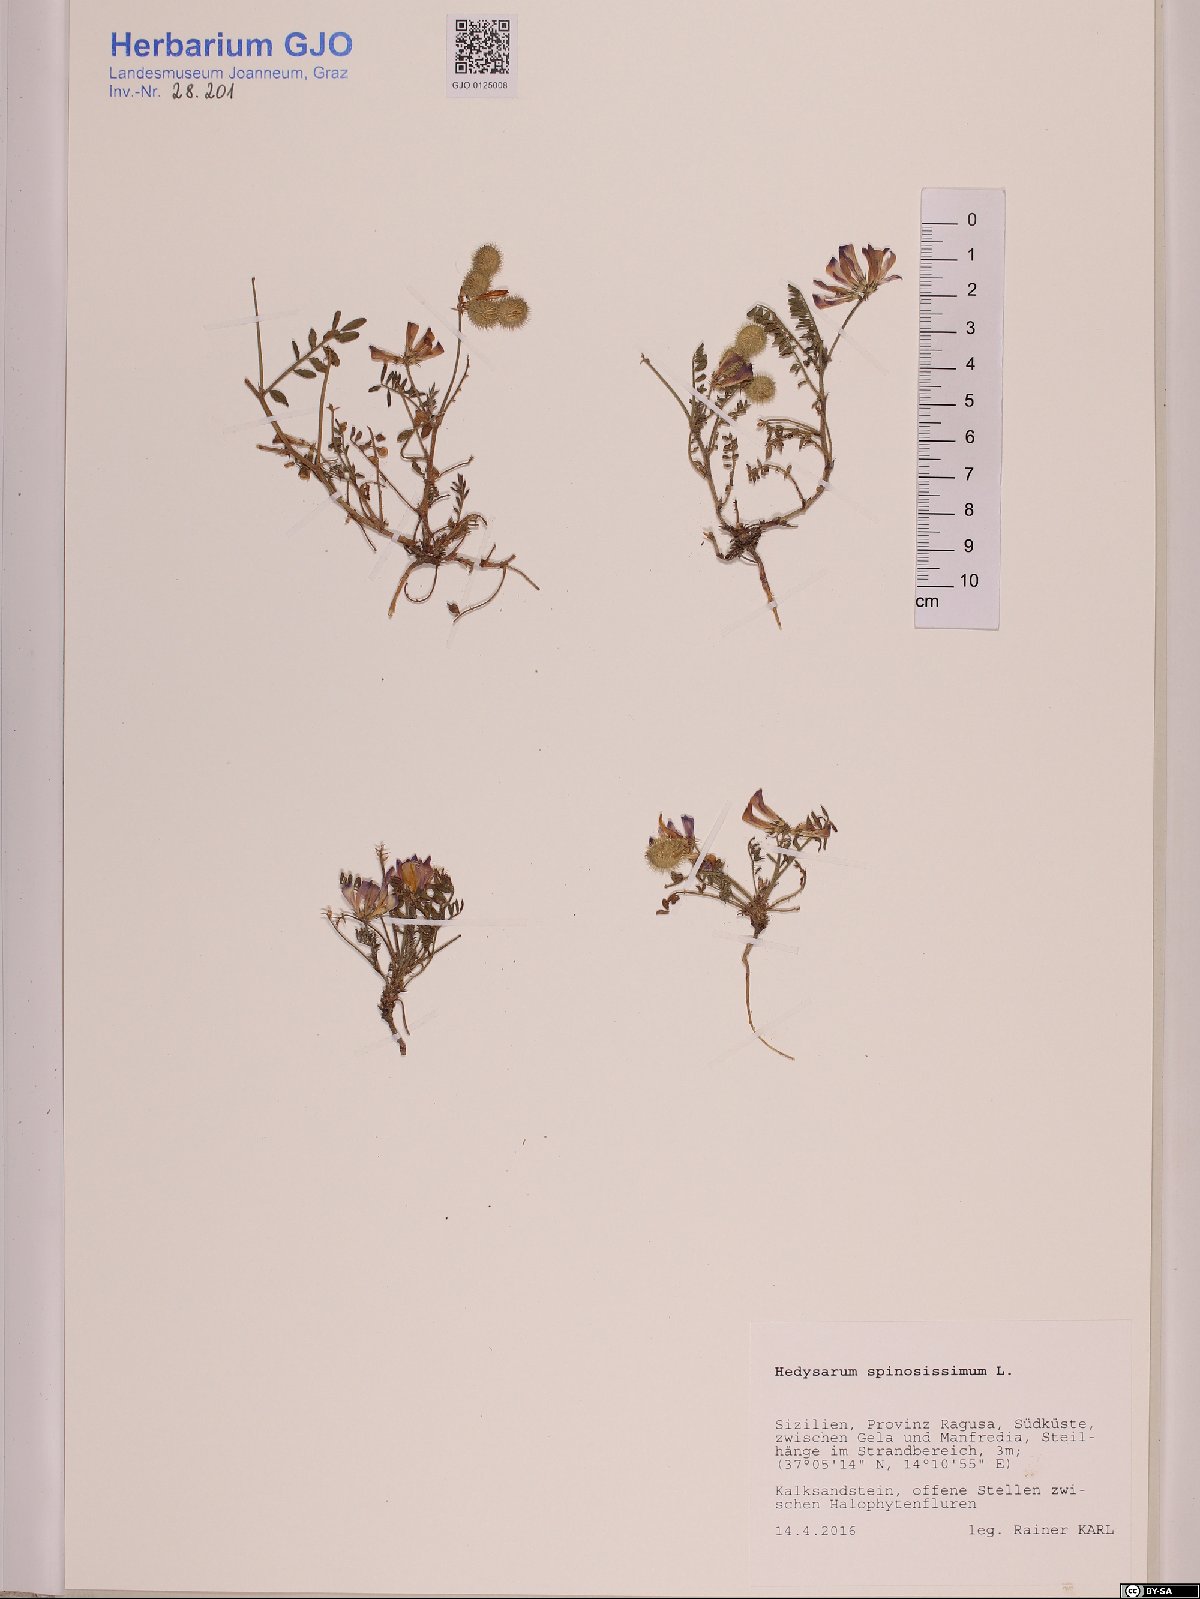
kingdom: Plantae
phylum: Tracheophyta
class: Magnoliopsida
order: Fabales
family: Fabaceae
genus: Sulla
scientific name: Sulla spinosissima
